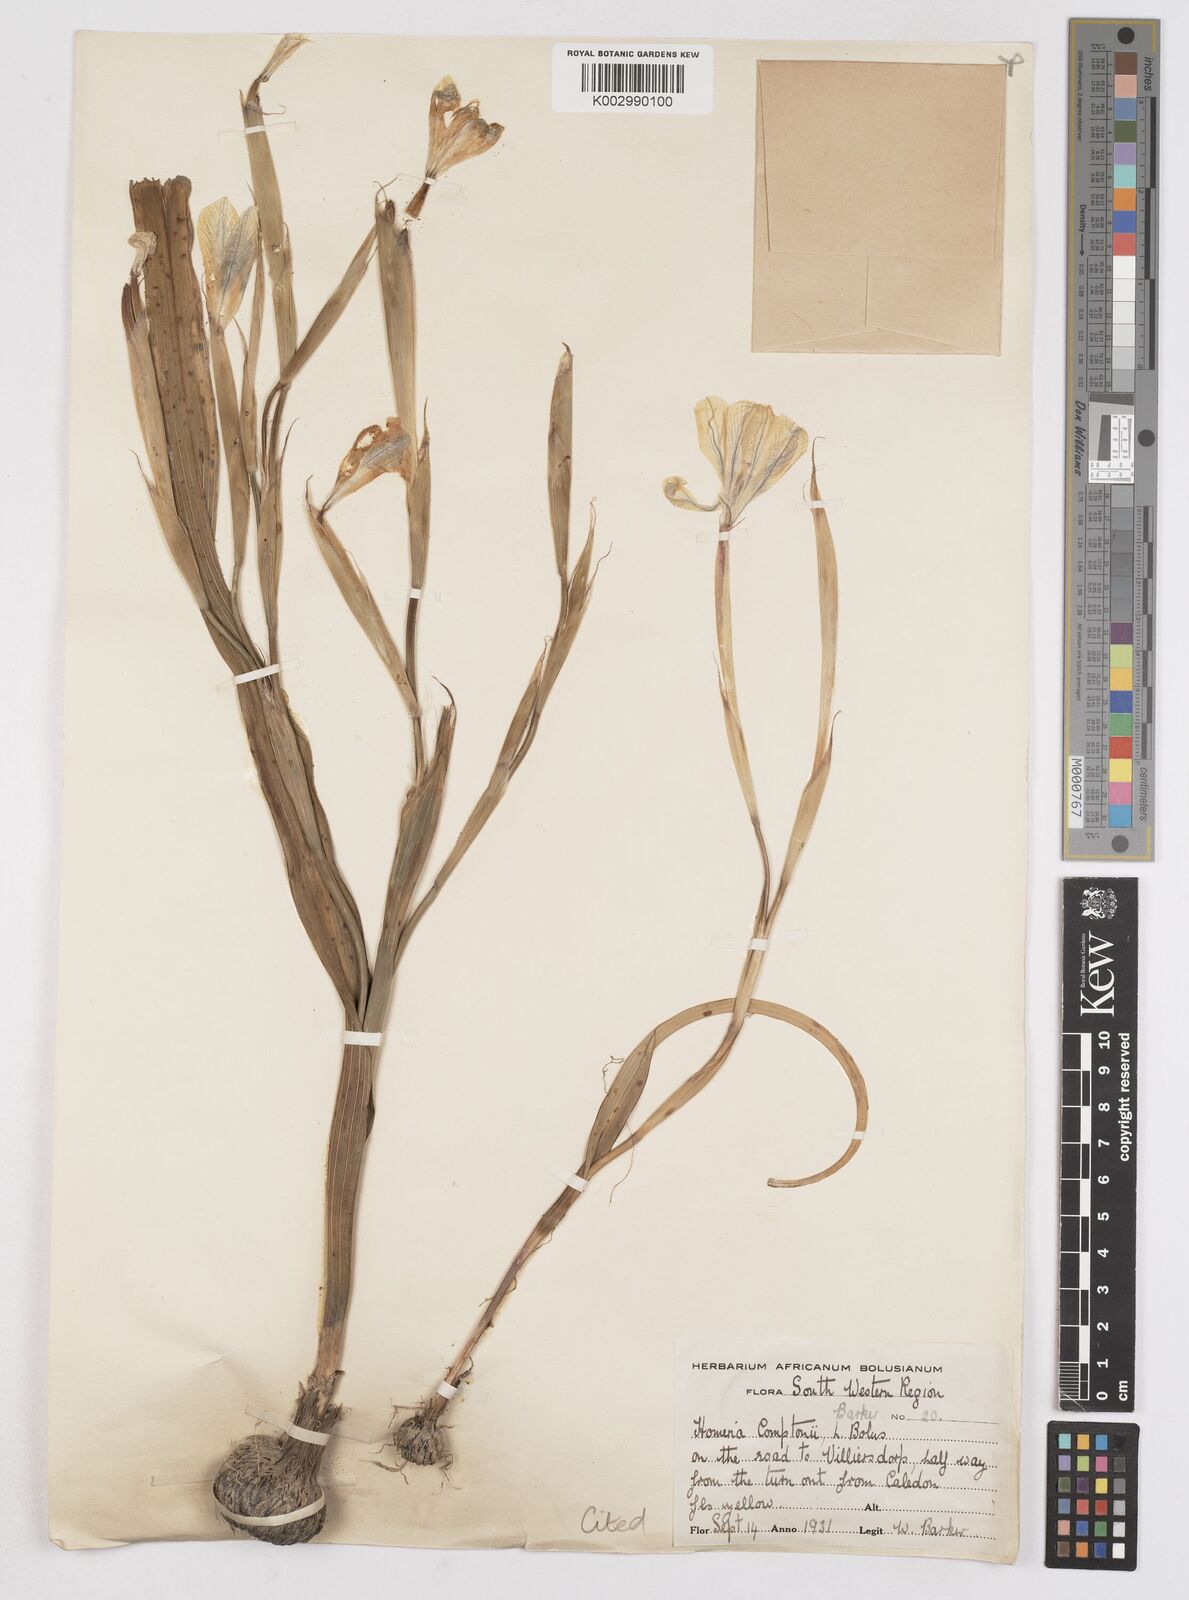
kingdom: Plantae
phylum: Tracheophyta
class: Liliopsida
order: Asparagales
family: Iridaceae
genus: Moraea
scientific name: Moraea comptonii
